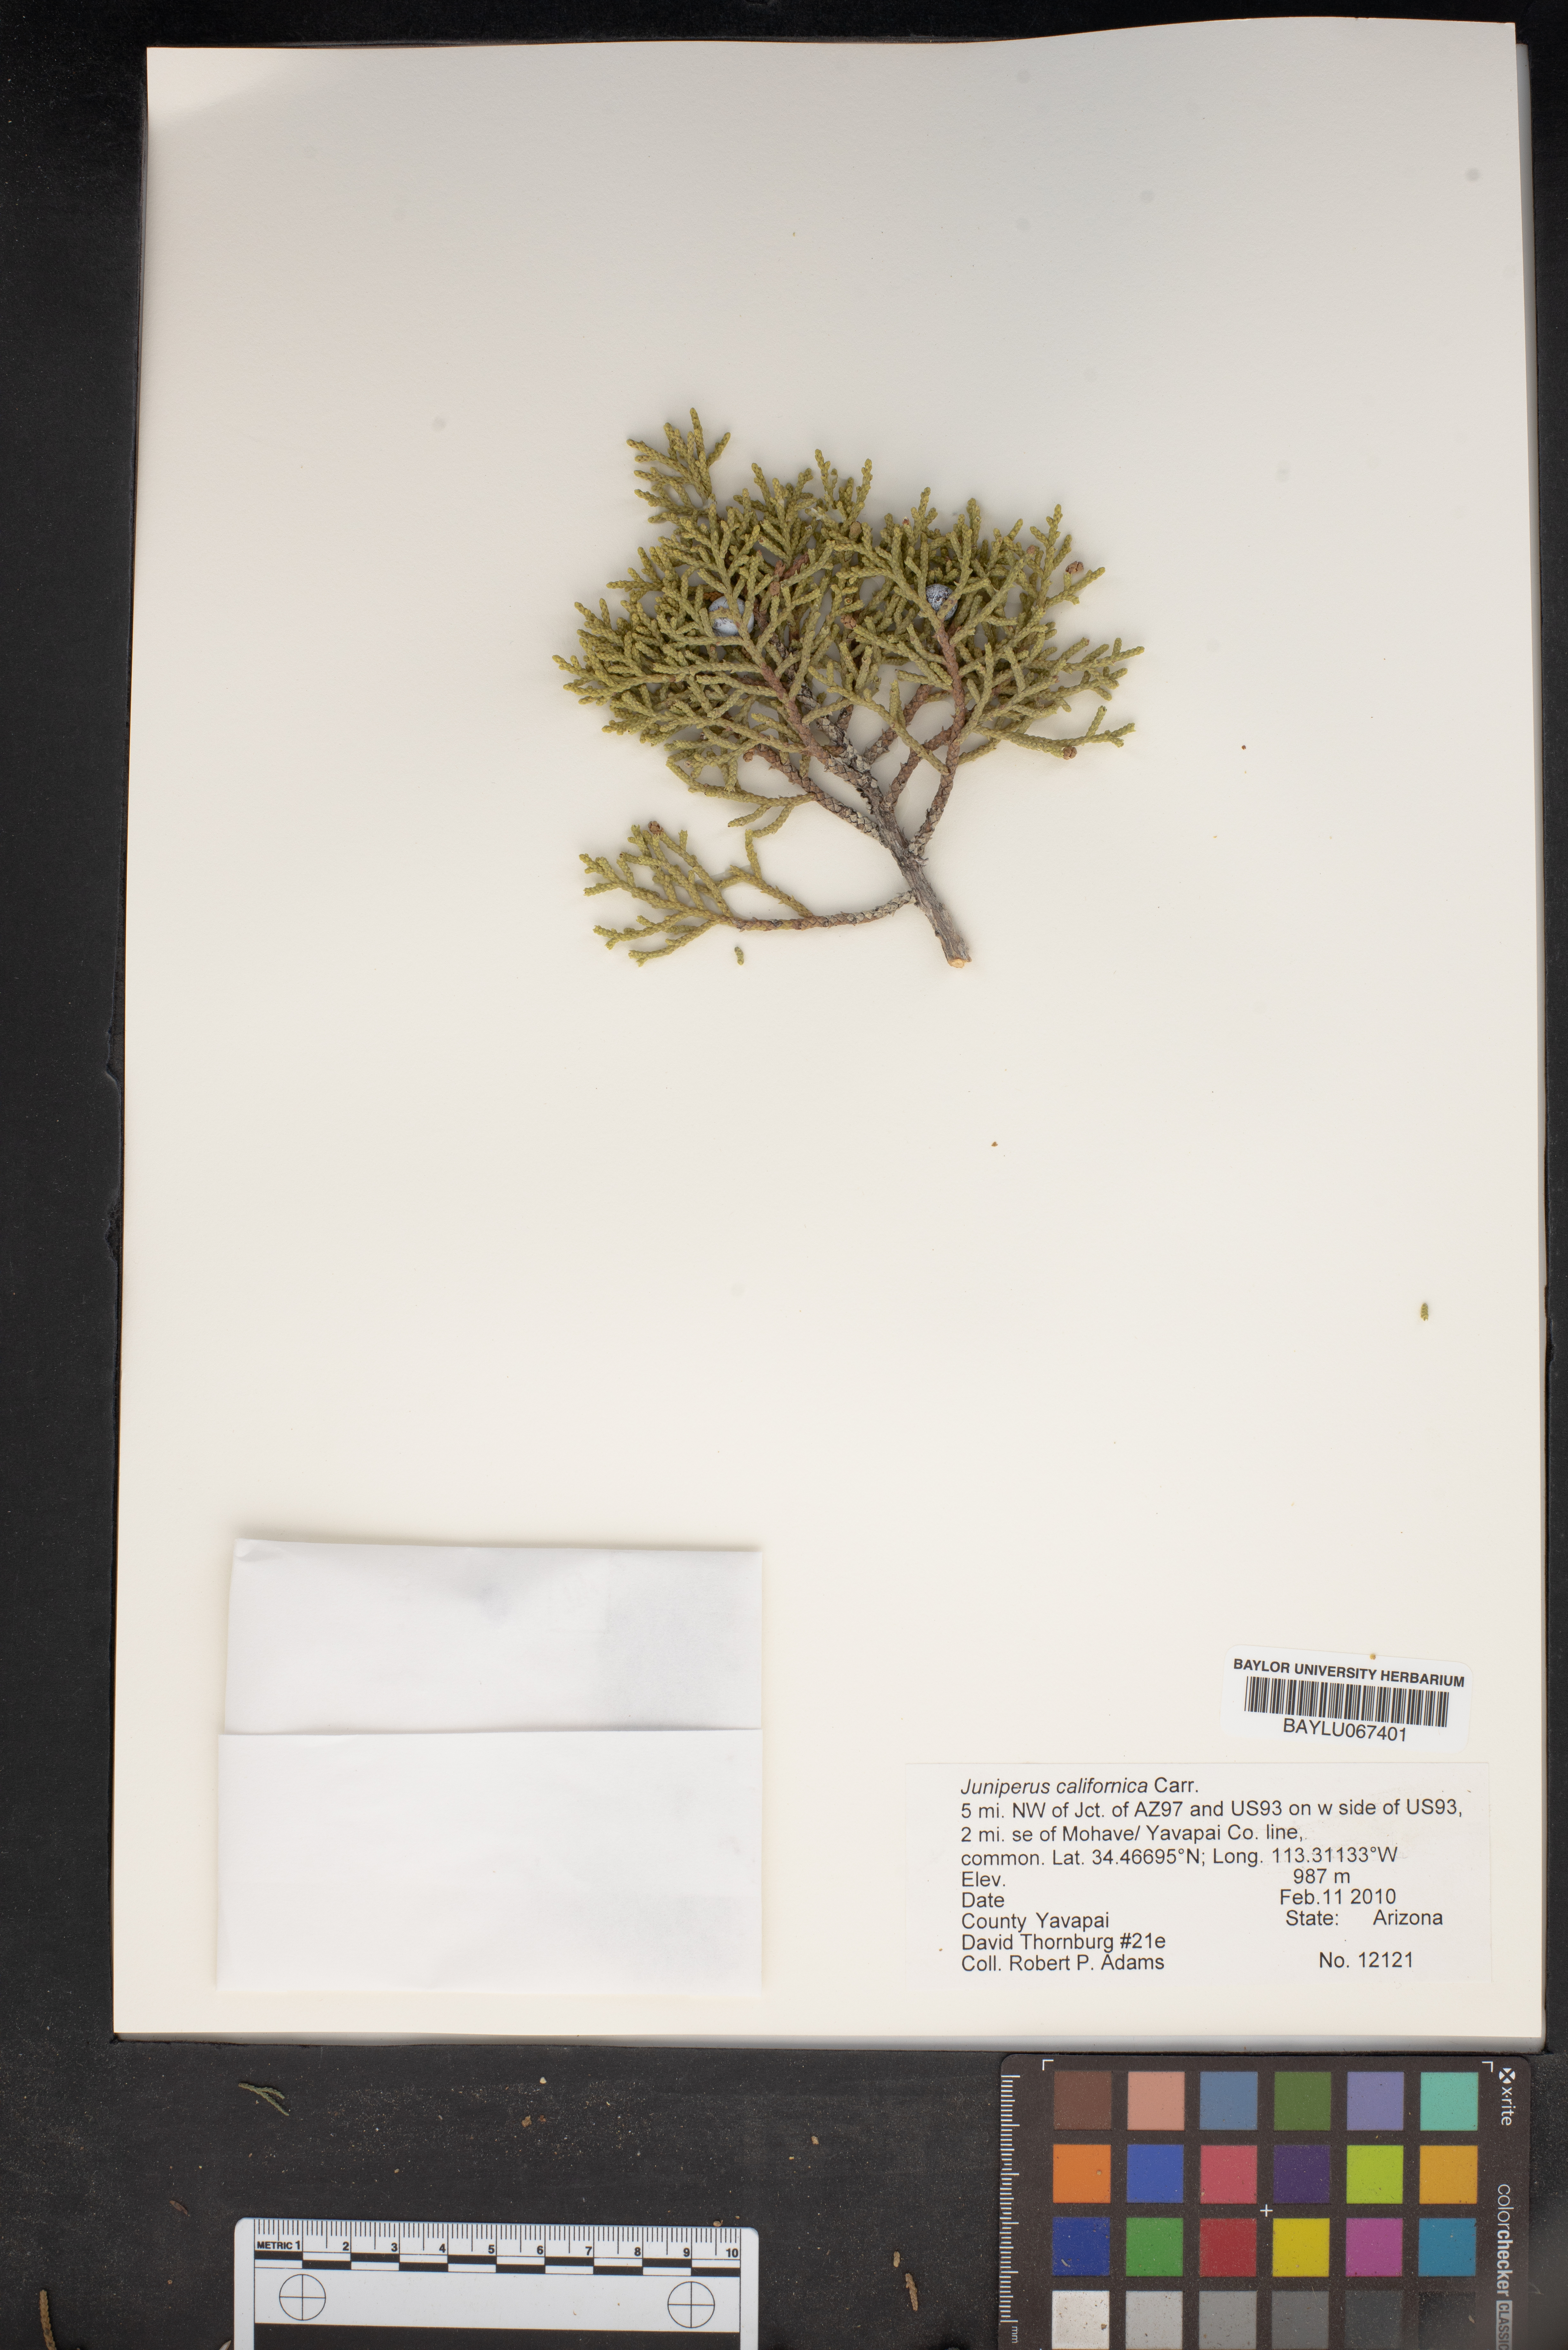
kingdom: Plantae
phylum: Tracheophyta
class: Pinopsida
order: Pinales
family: Cupressaceae
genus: Juniperus
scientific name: Juniperus californica
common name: California juniper
